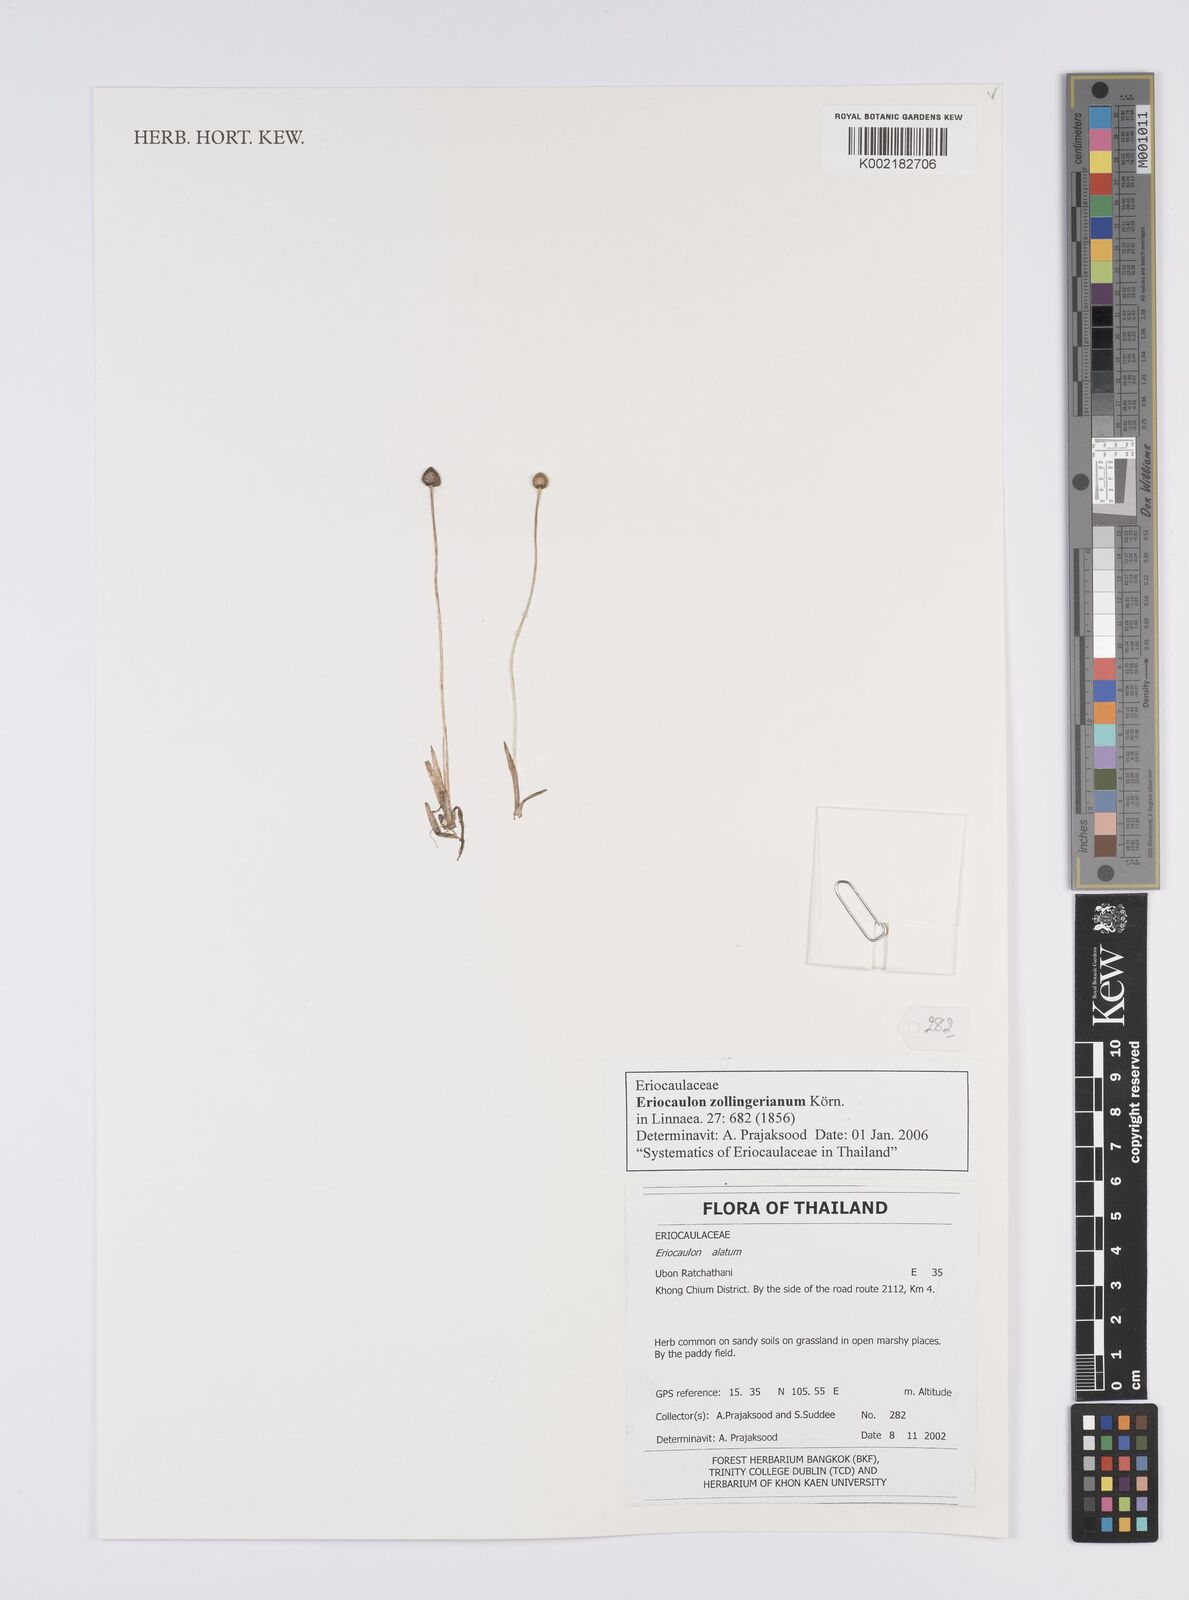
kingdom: Plantae
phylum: Tracheophyta
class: Liliopsida
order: Poales
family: Eriocaulaceae
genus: Eriocaulon
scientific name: Eriocaulon zollingerianum
